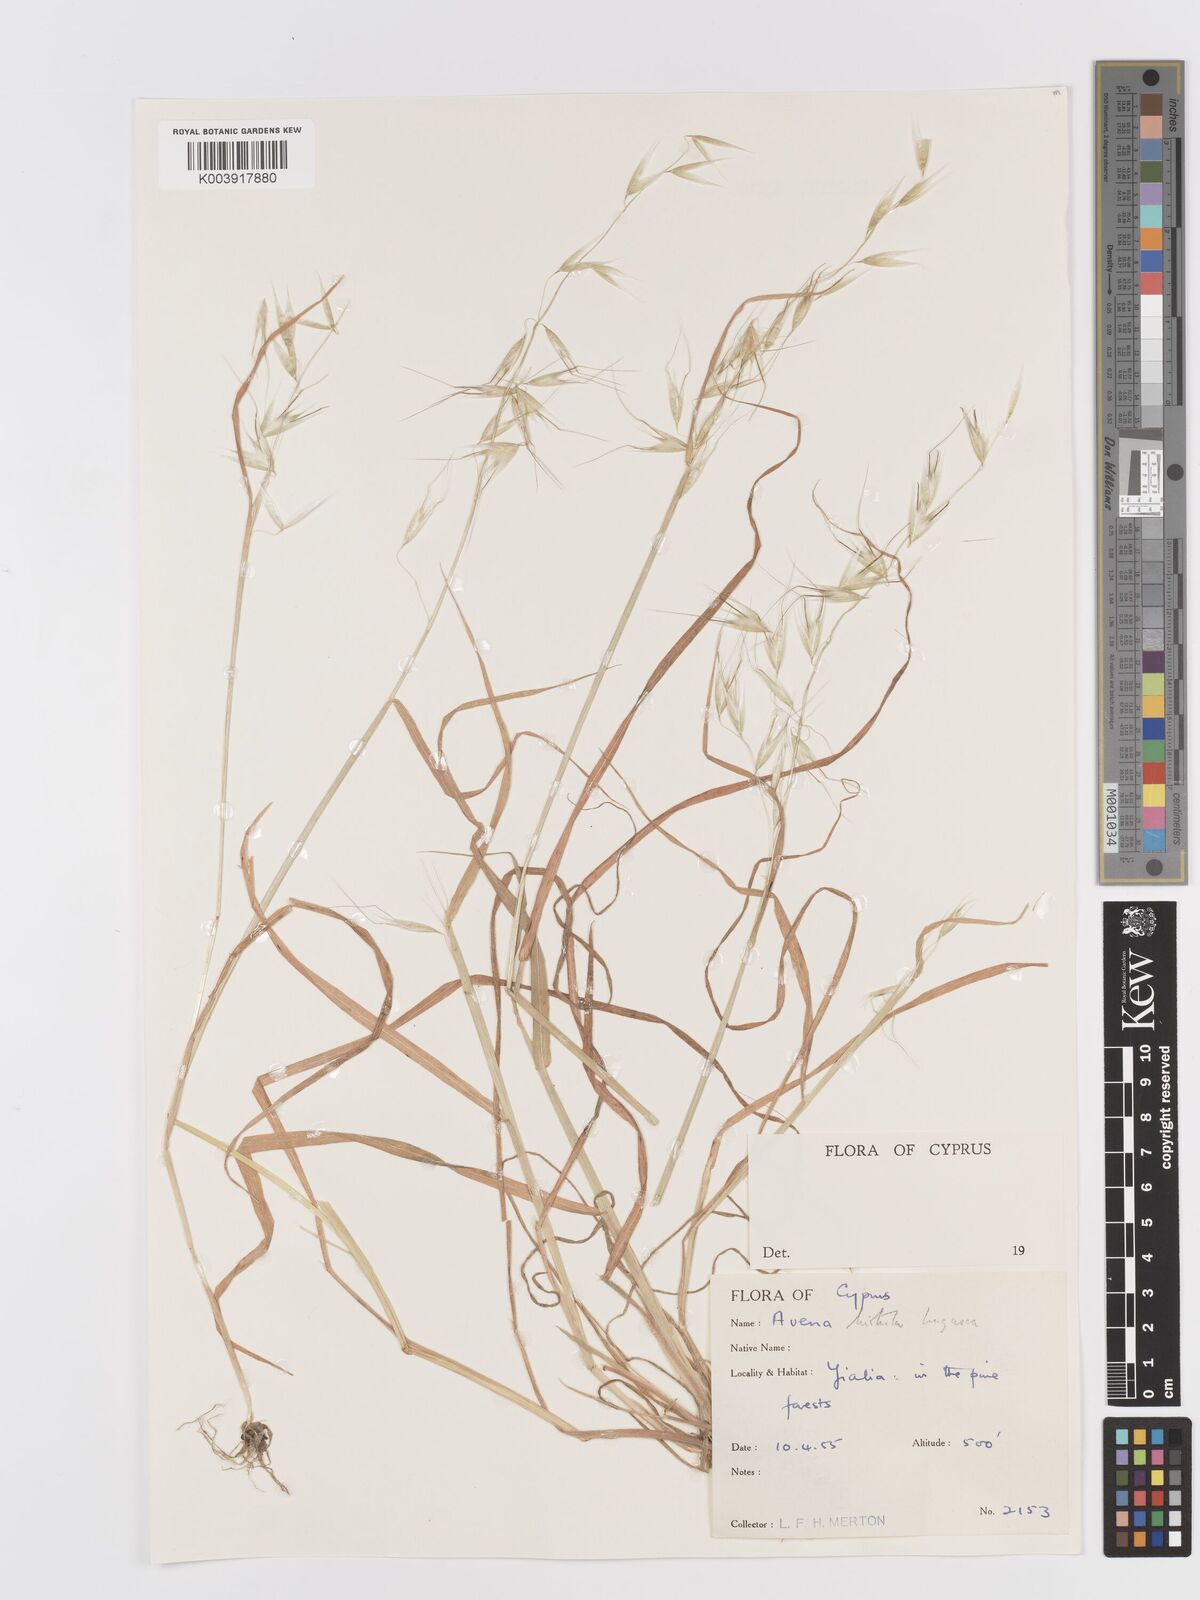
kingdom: Plantae
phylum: Tracheophyta
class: Liliopsida
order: Poales
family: Poaceae
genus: Avena
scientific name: Avena
